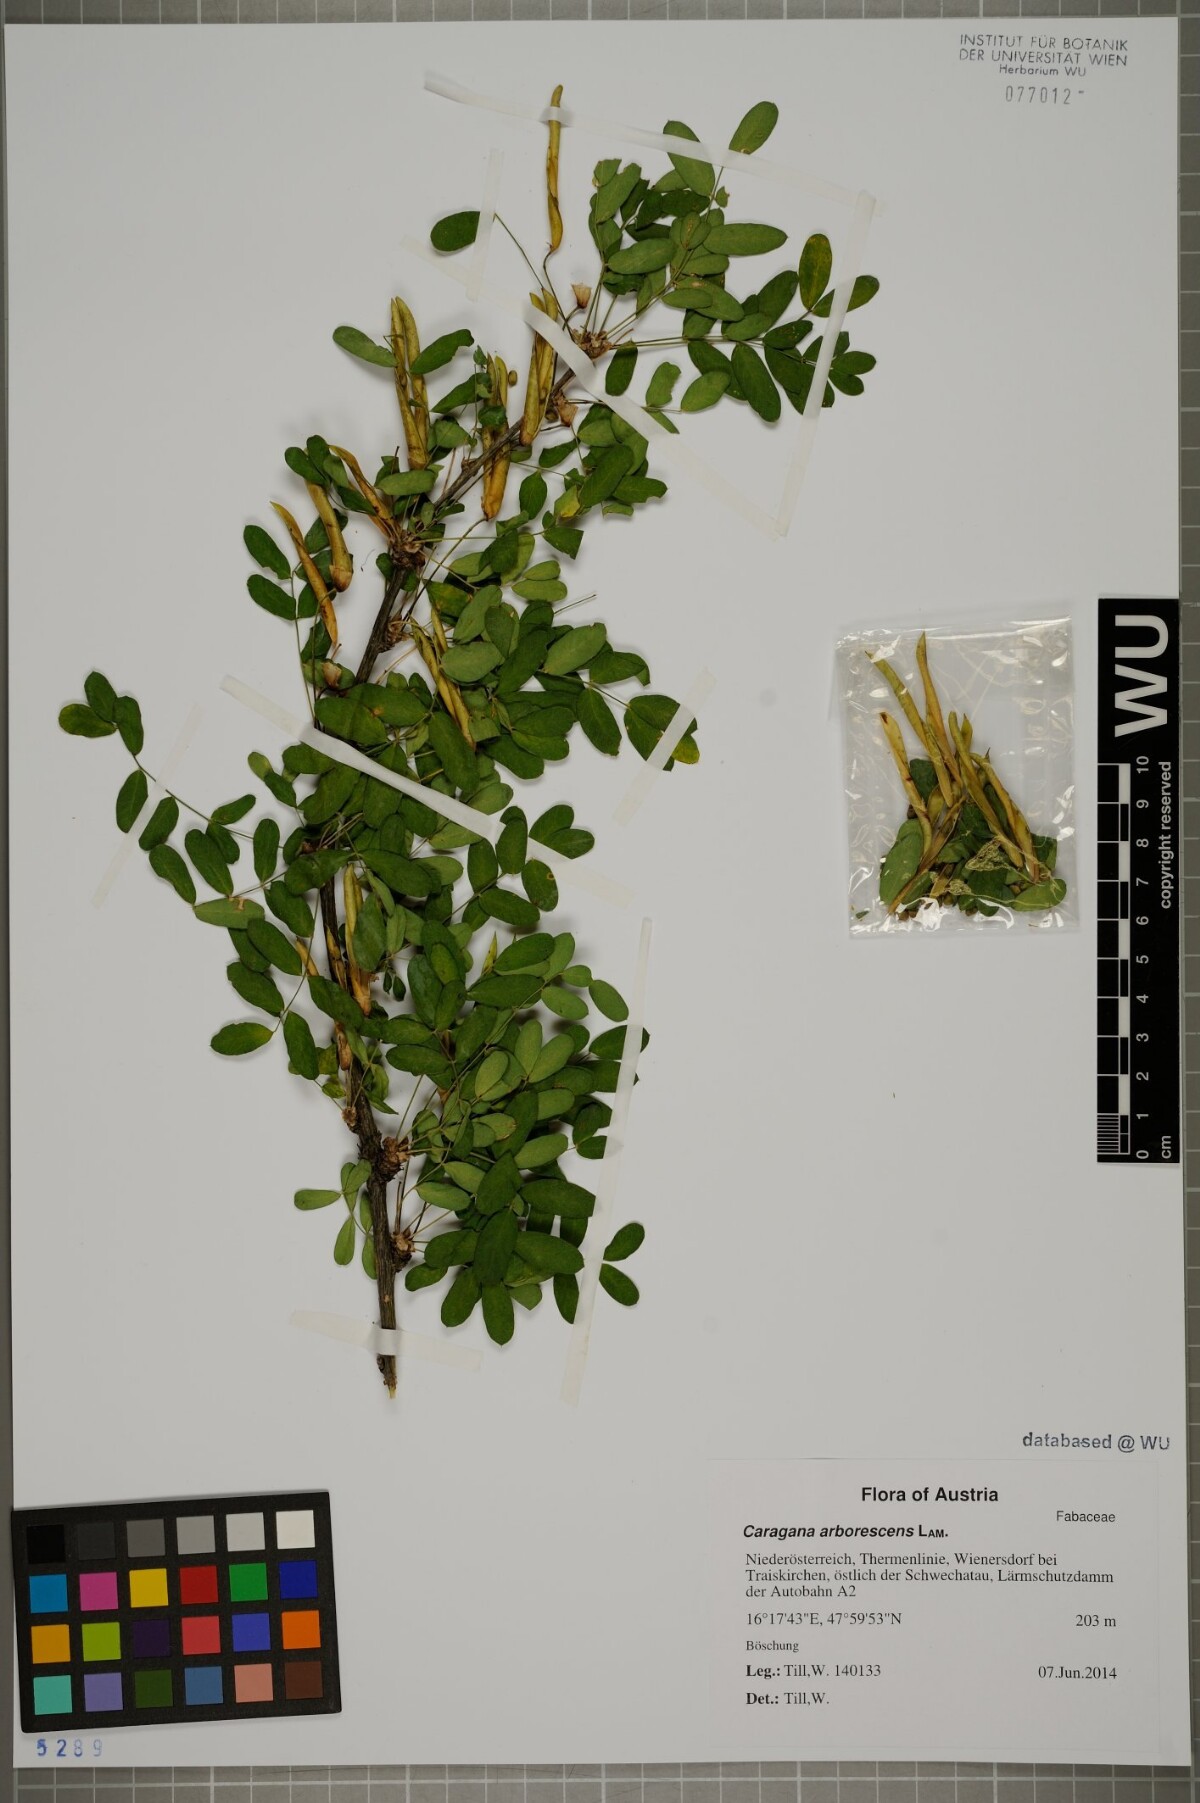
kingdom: Plantae
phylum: Tracheophyta
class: Magnoliopsida
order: Fabales
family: Fabaceae
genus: Caragana
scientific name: Caragana arborescens
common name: Siberian peashrub
